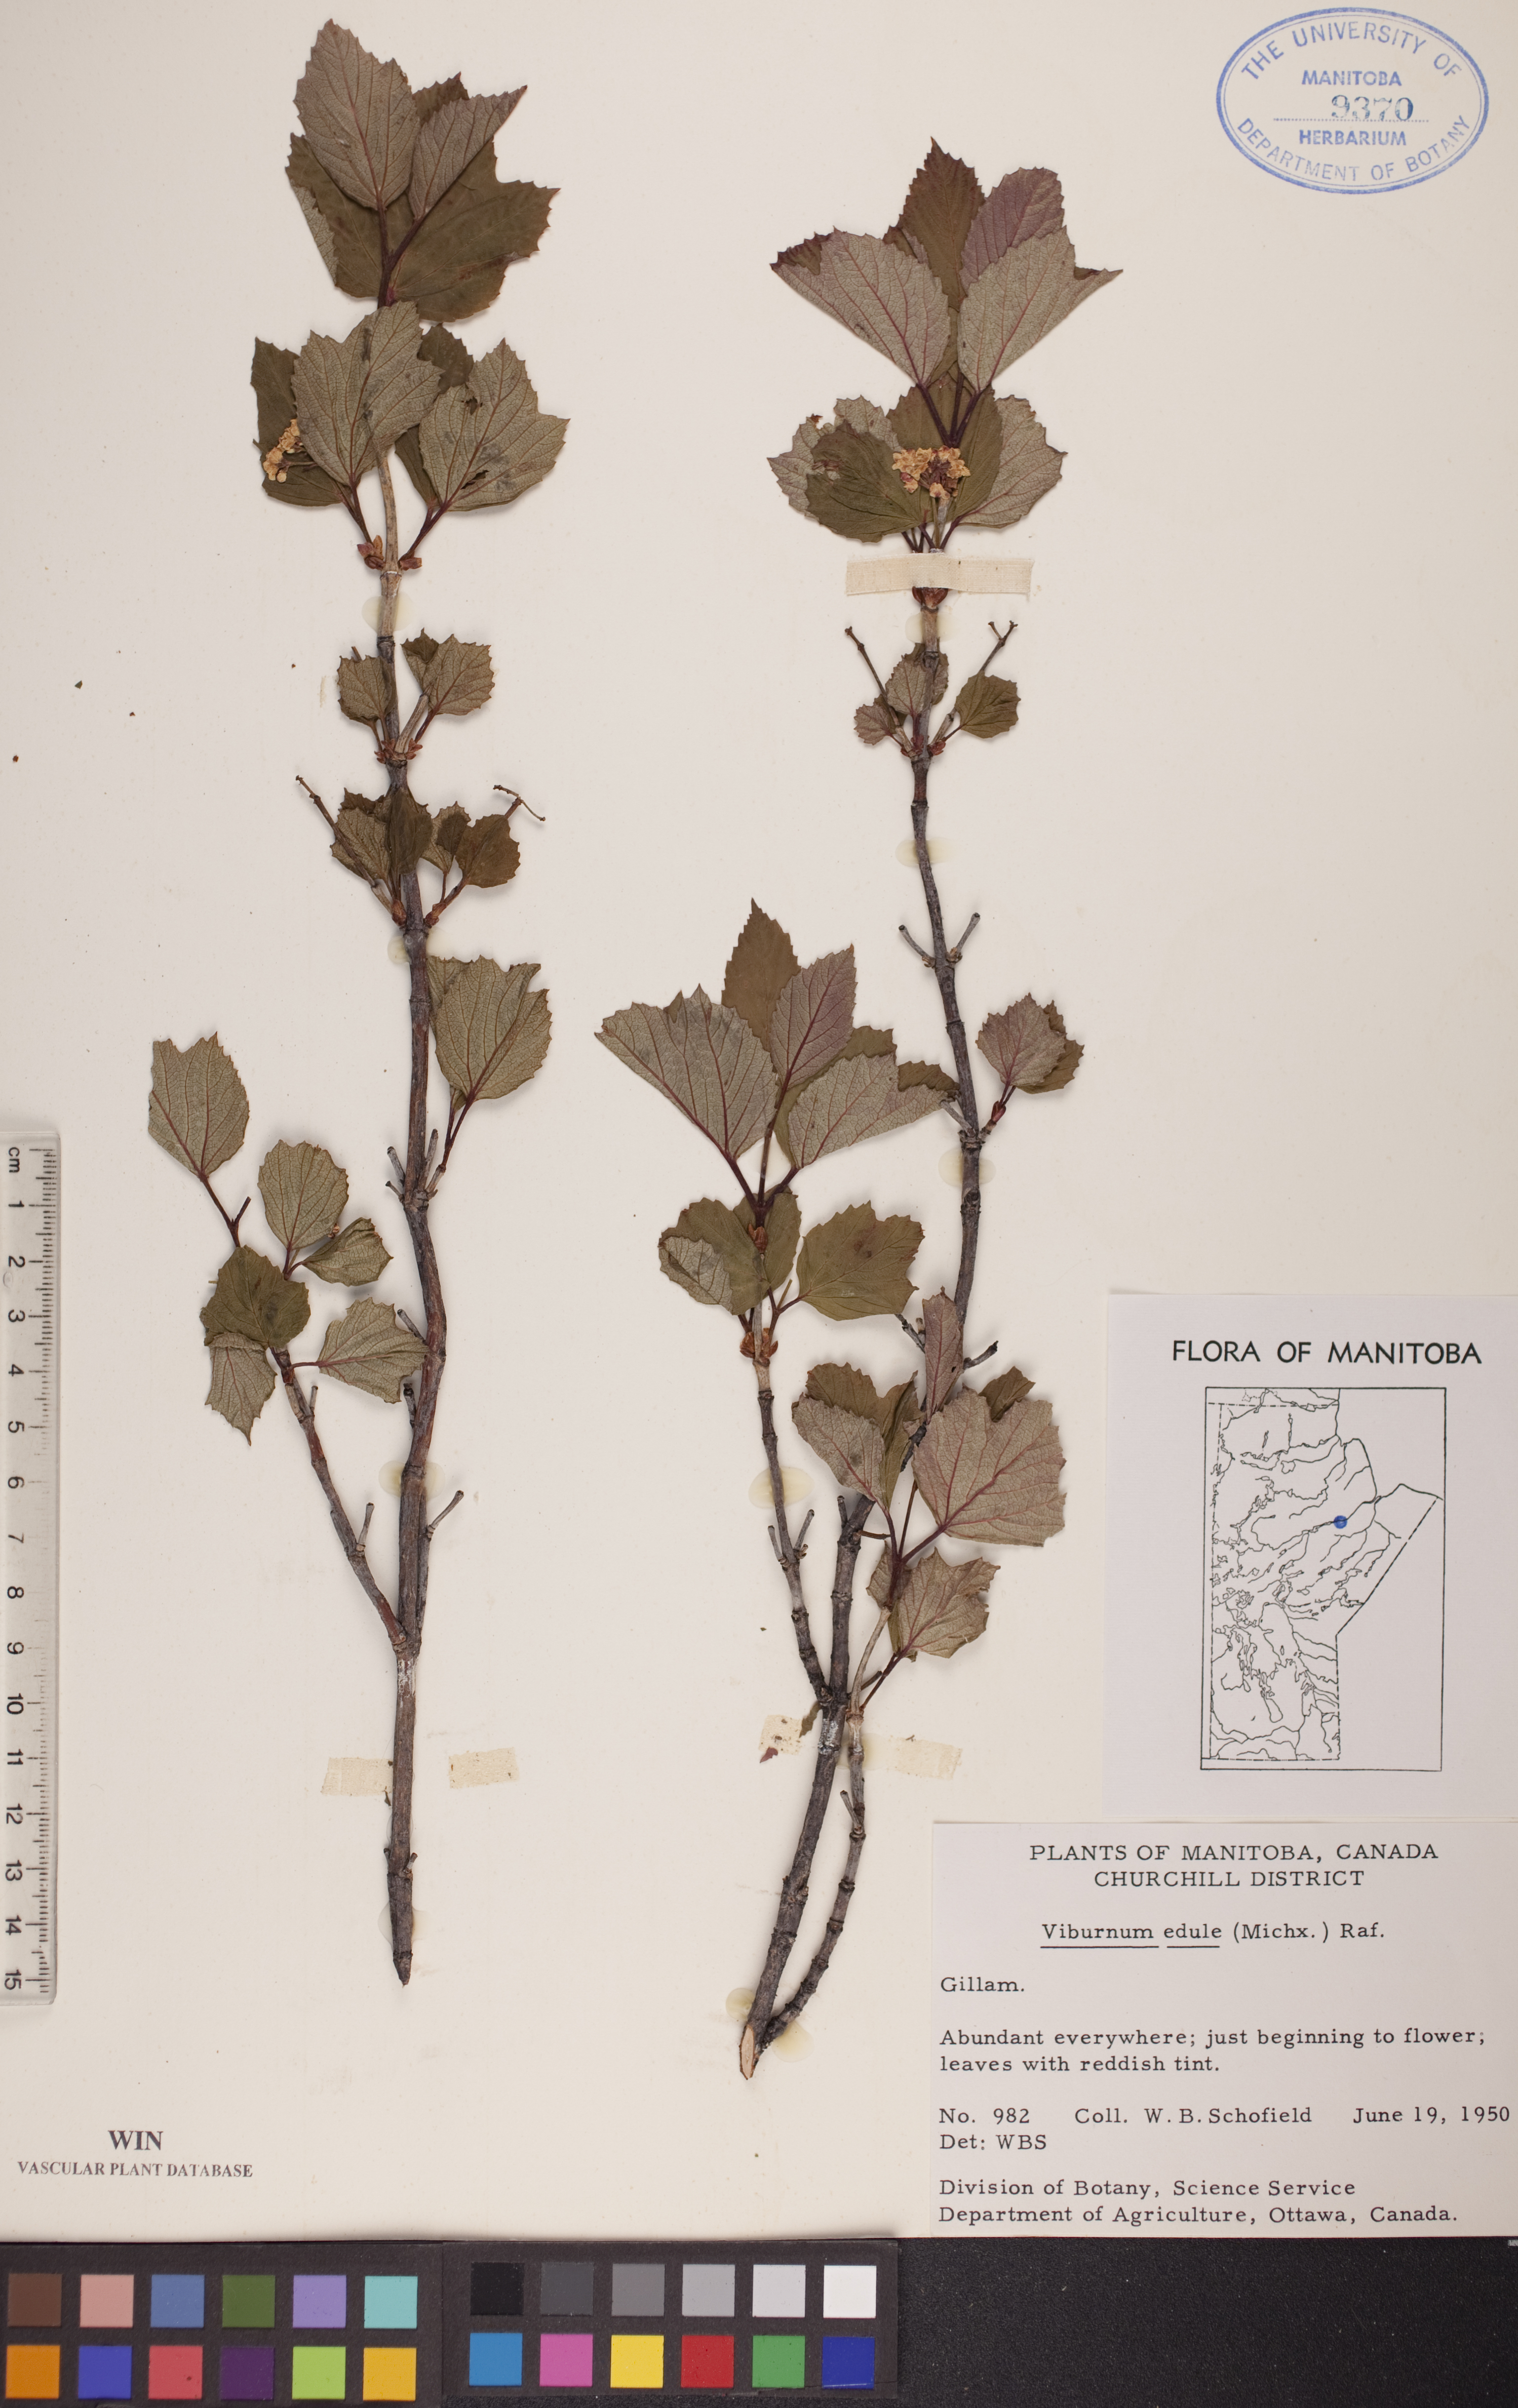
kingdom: Plantae
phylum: Tracheophyta
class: Magnoliopsida
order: Dipsacales
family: Viburnaceae
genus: Viburnum
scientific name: Viburnum edule
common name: Mooseberry
